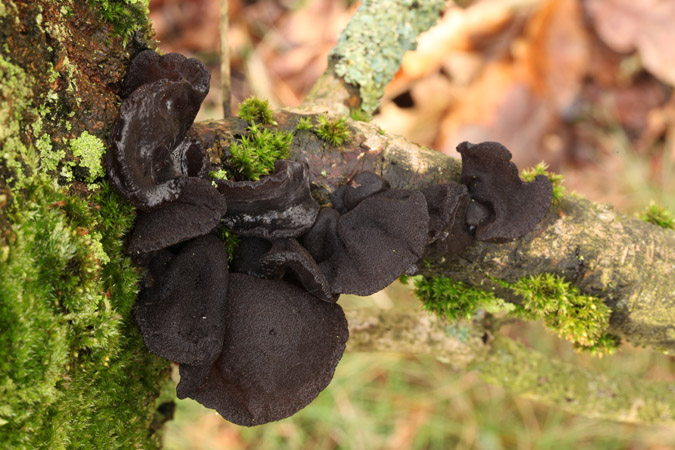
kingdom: Fungi
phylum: Basidiomycota
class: Agaricomycetes
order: Auriculariales
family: Auriculariaceae
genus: Exidia
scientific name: Exidia glandulosa
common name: ege-bævretop
